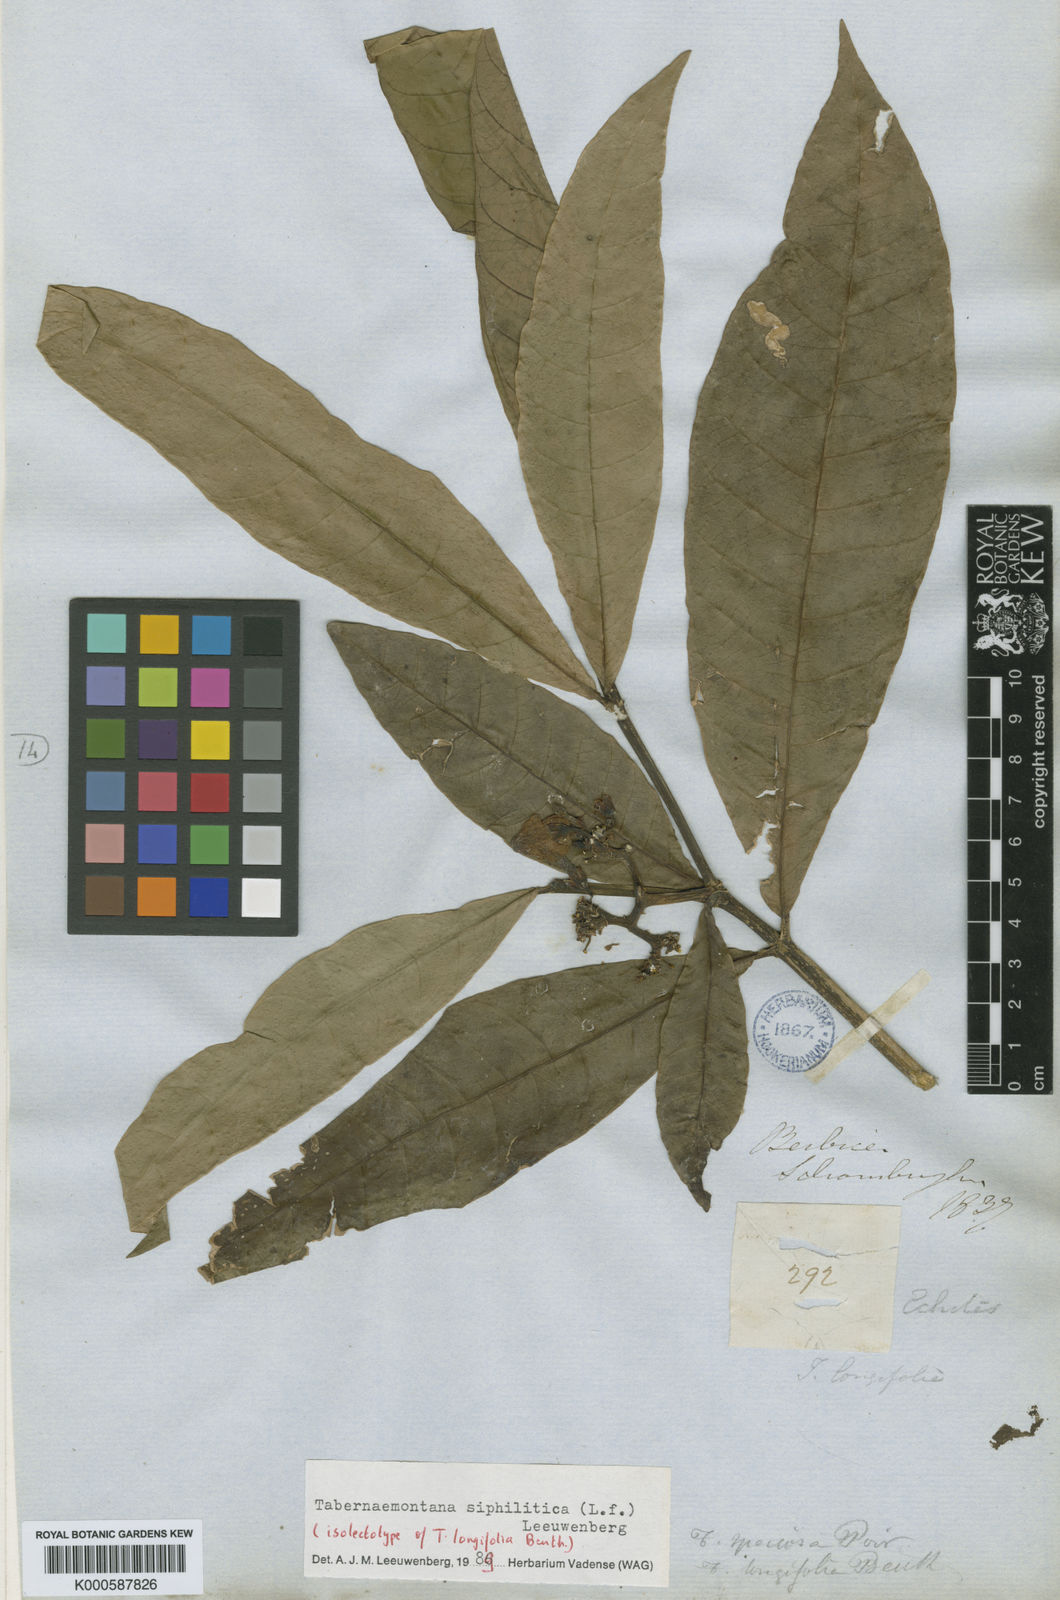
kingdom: Plantae
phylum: Tracheophyta
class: Magnoliopsida
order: Gentianales
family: Apocynaceae
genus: Tabernaemontana
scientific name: Tabernaemontana siphilitica
